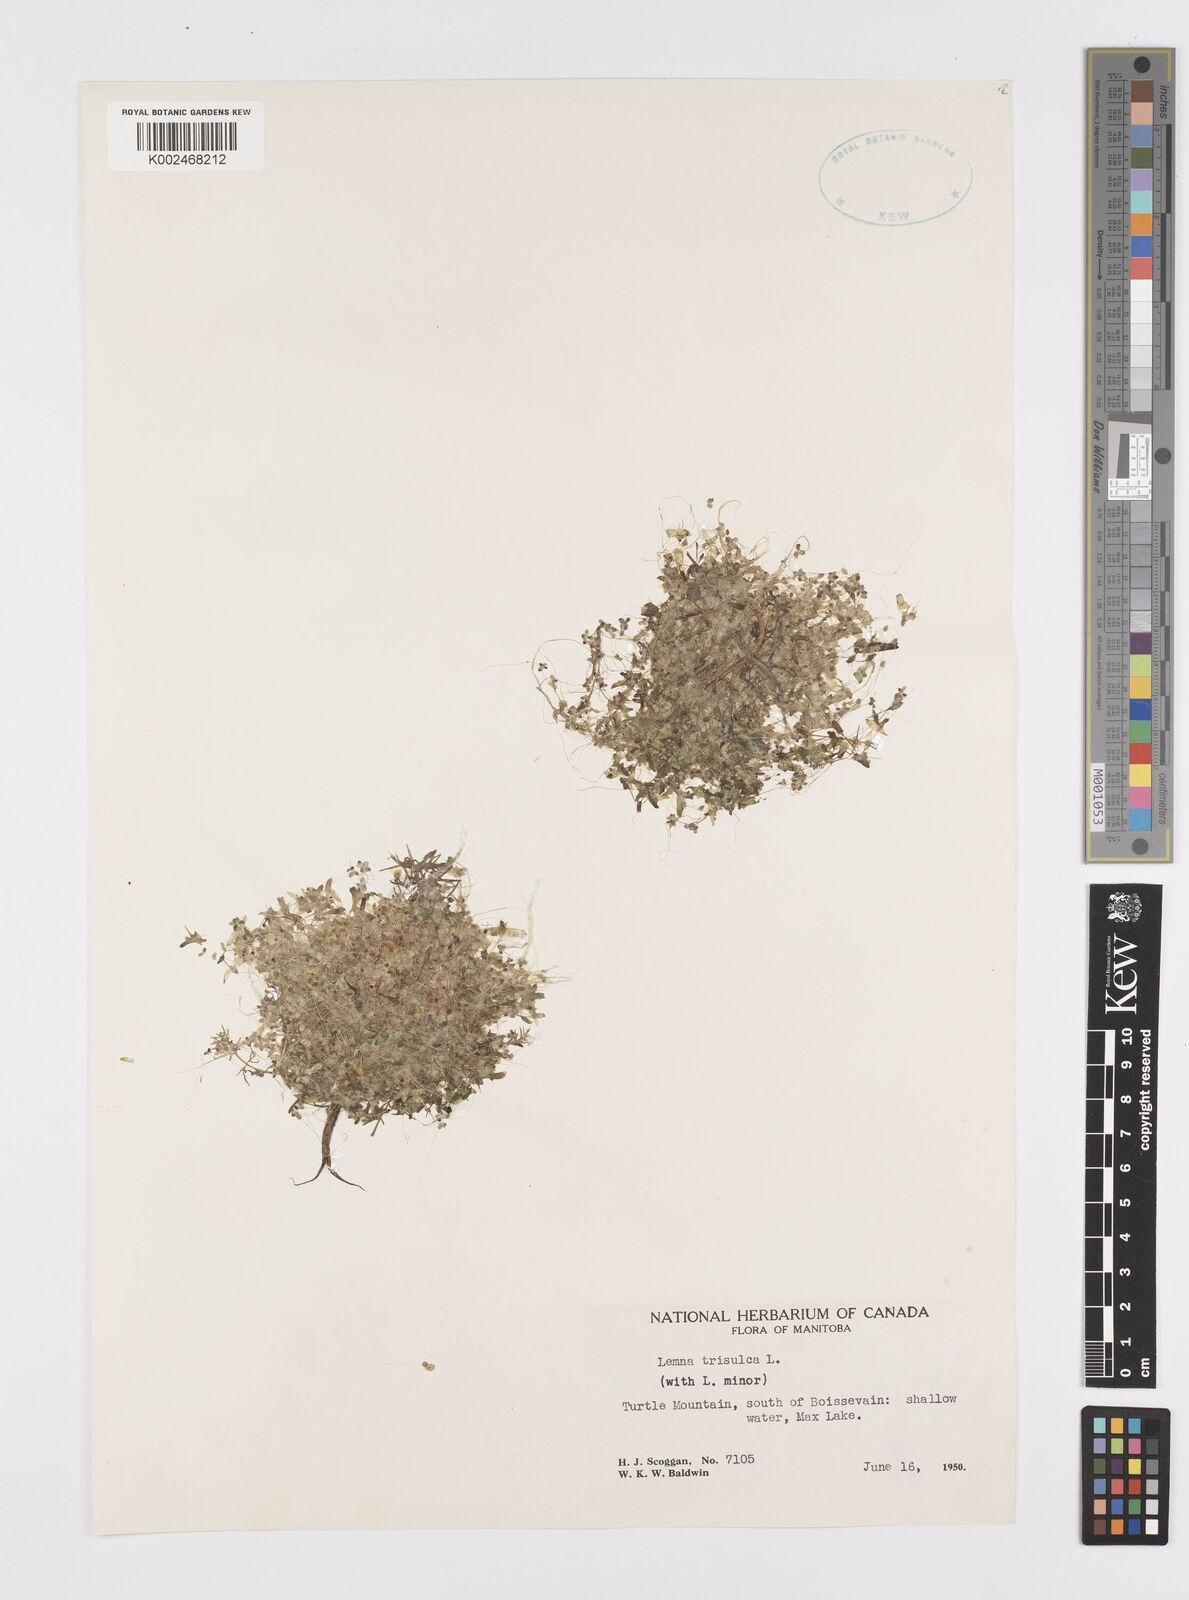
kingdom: Plantae
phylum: Tracheophyta
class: Liliopsida
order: Alismatales
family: Araceae
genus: Lemna
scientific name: Lemna trisulca
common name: Ivy-leaved duckweed
